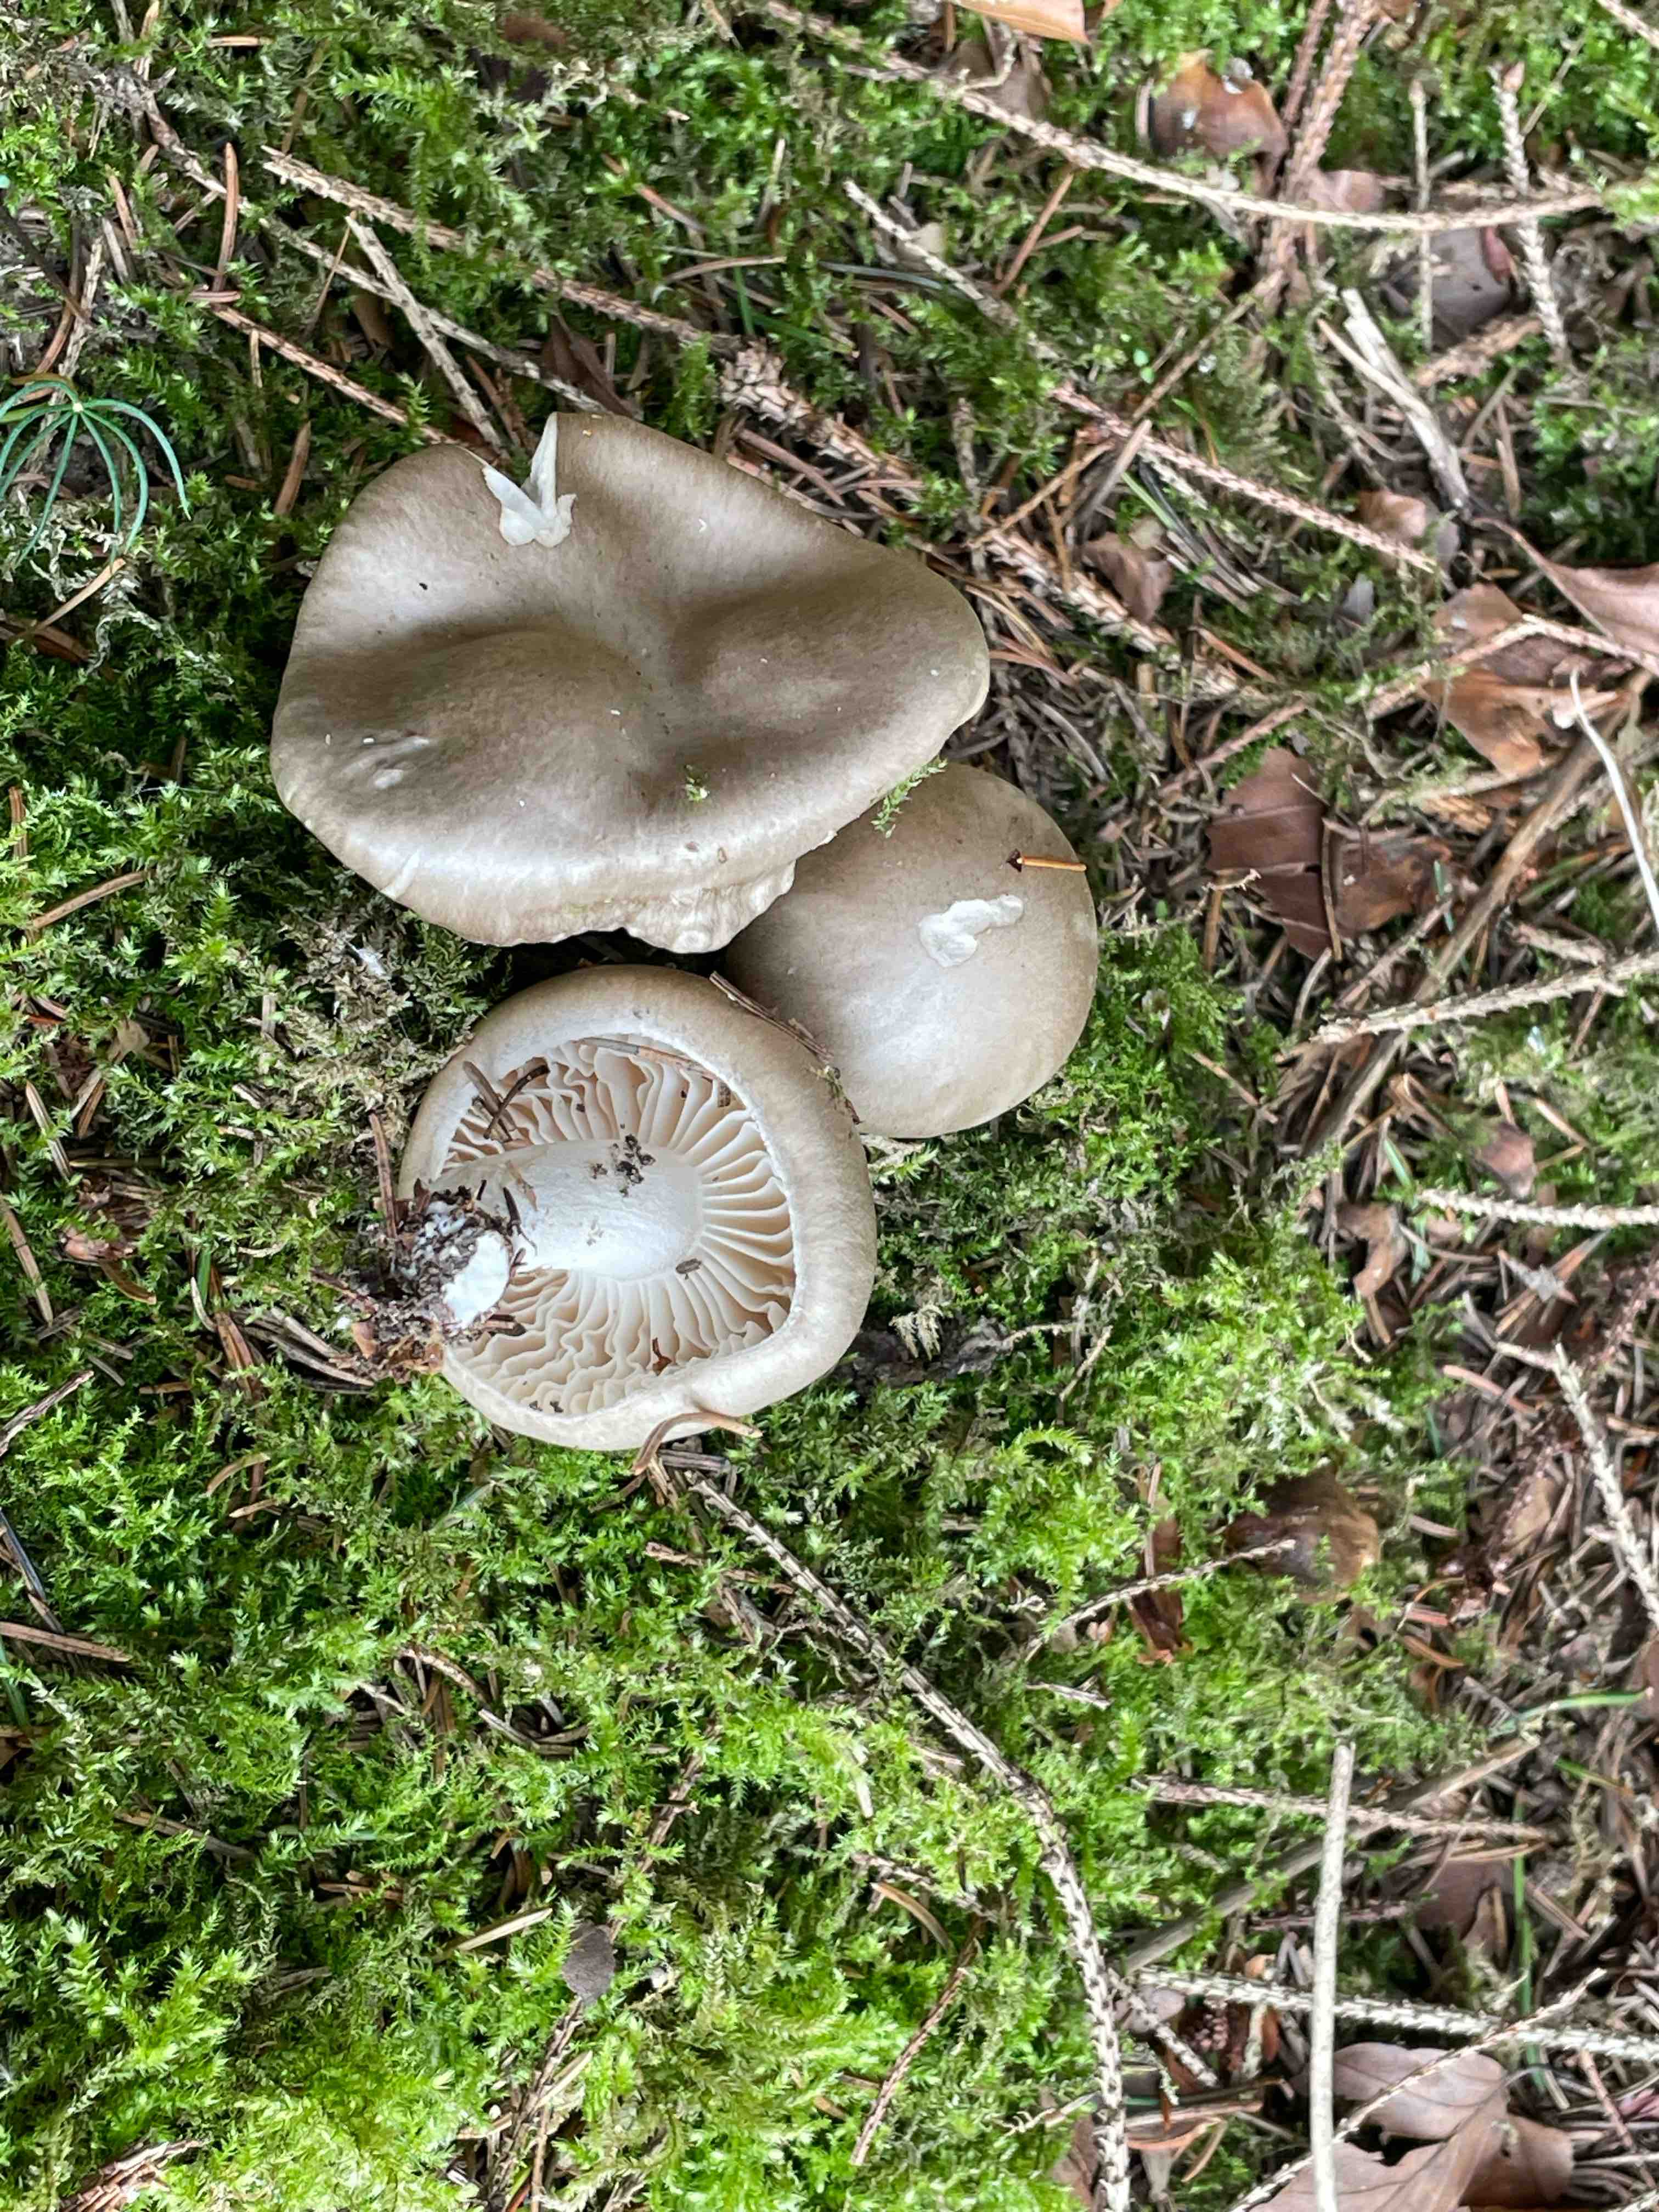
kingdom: Fungi
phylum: Basidiomycota
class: Agaricomycetes
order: Agaricales
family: Hygrophoraceae
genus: Hygrophorus
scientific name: Hygrophorus agathosmus
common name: vellugtende sneglehat
